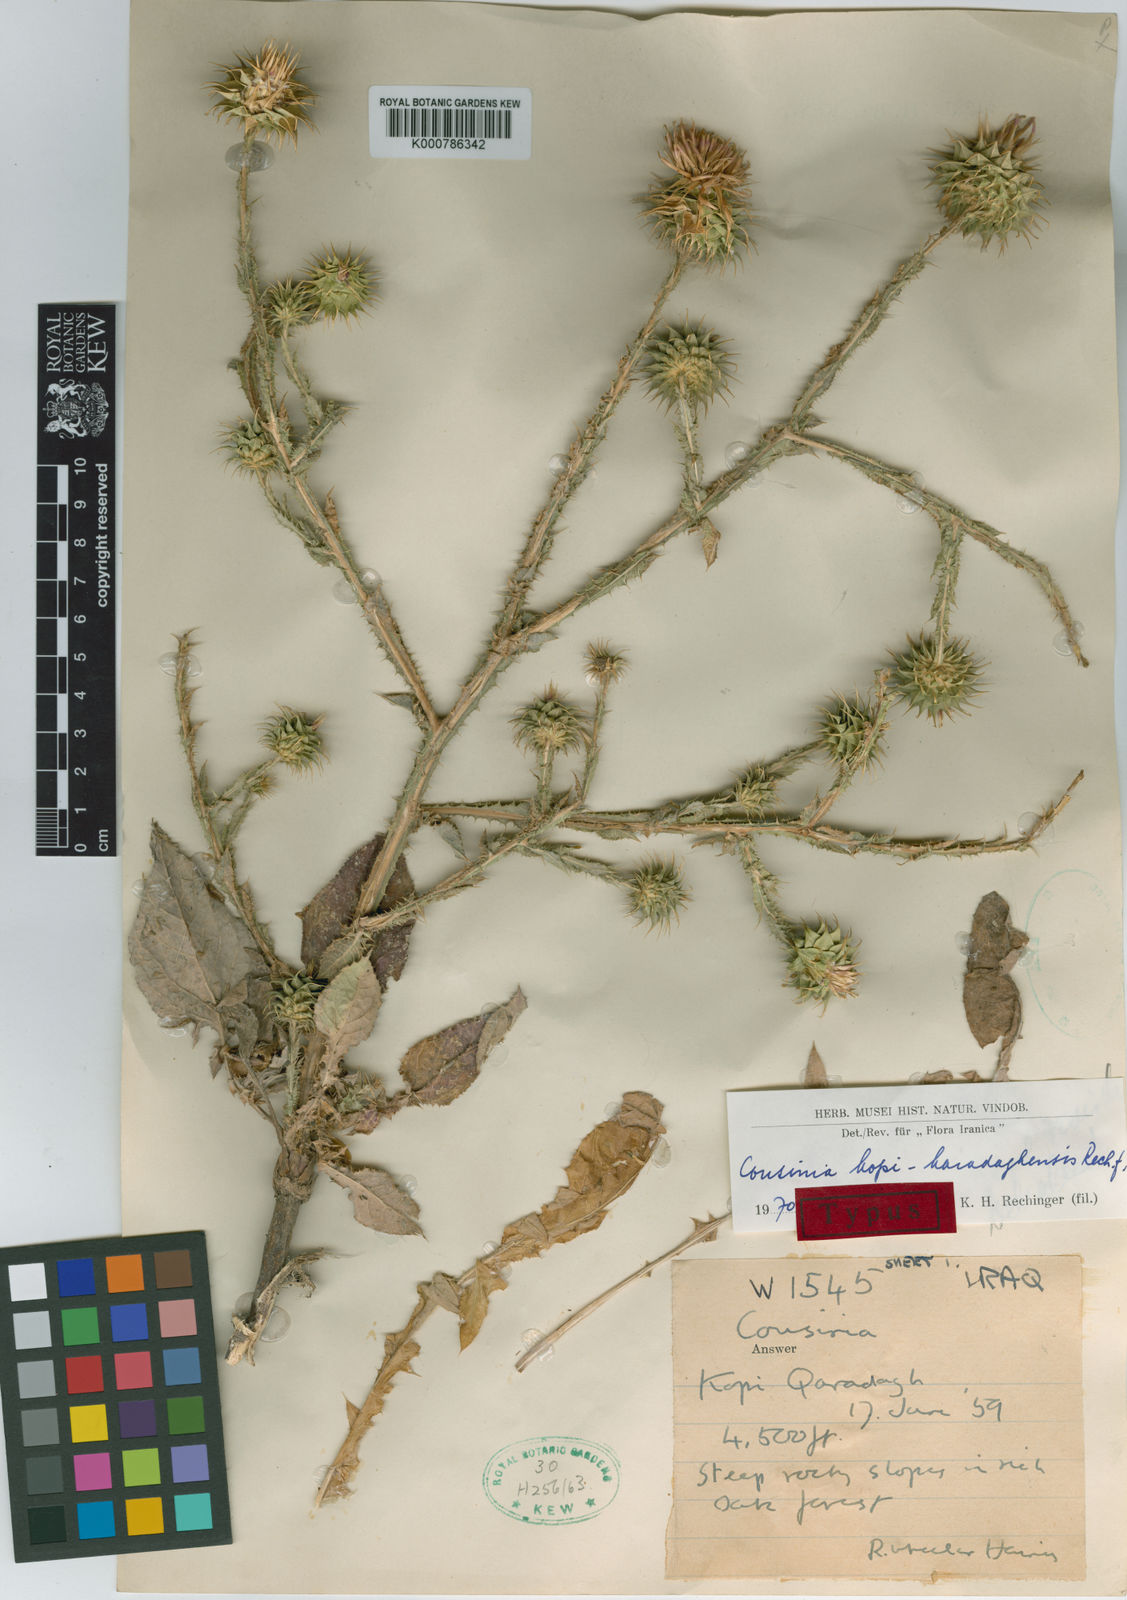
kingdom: Plantae
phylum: Tracheophyta
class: Magnoliopsida
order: Asterales
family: Asteraceae
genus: Cousinia
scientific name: Cousinia kopi-karadaghensis
